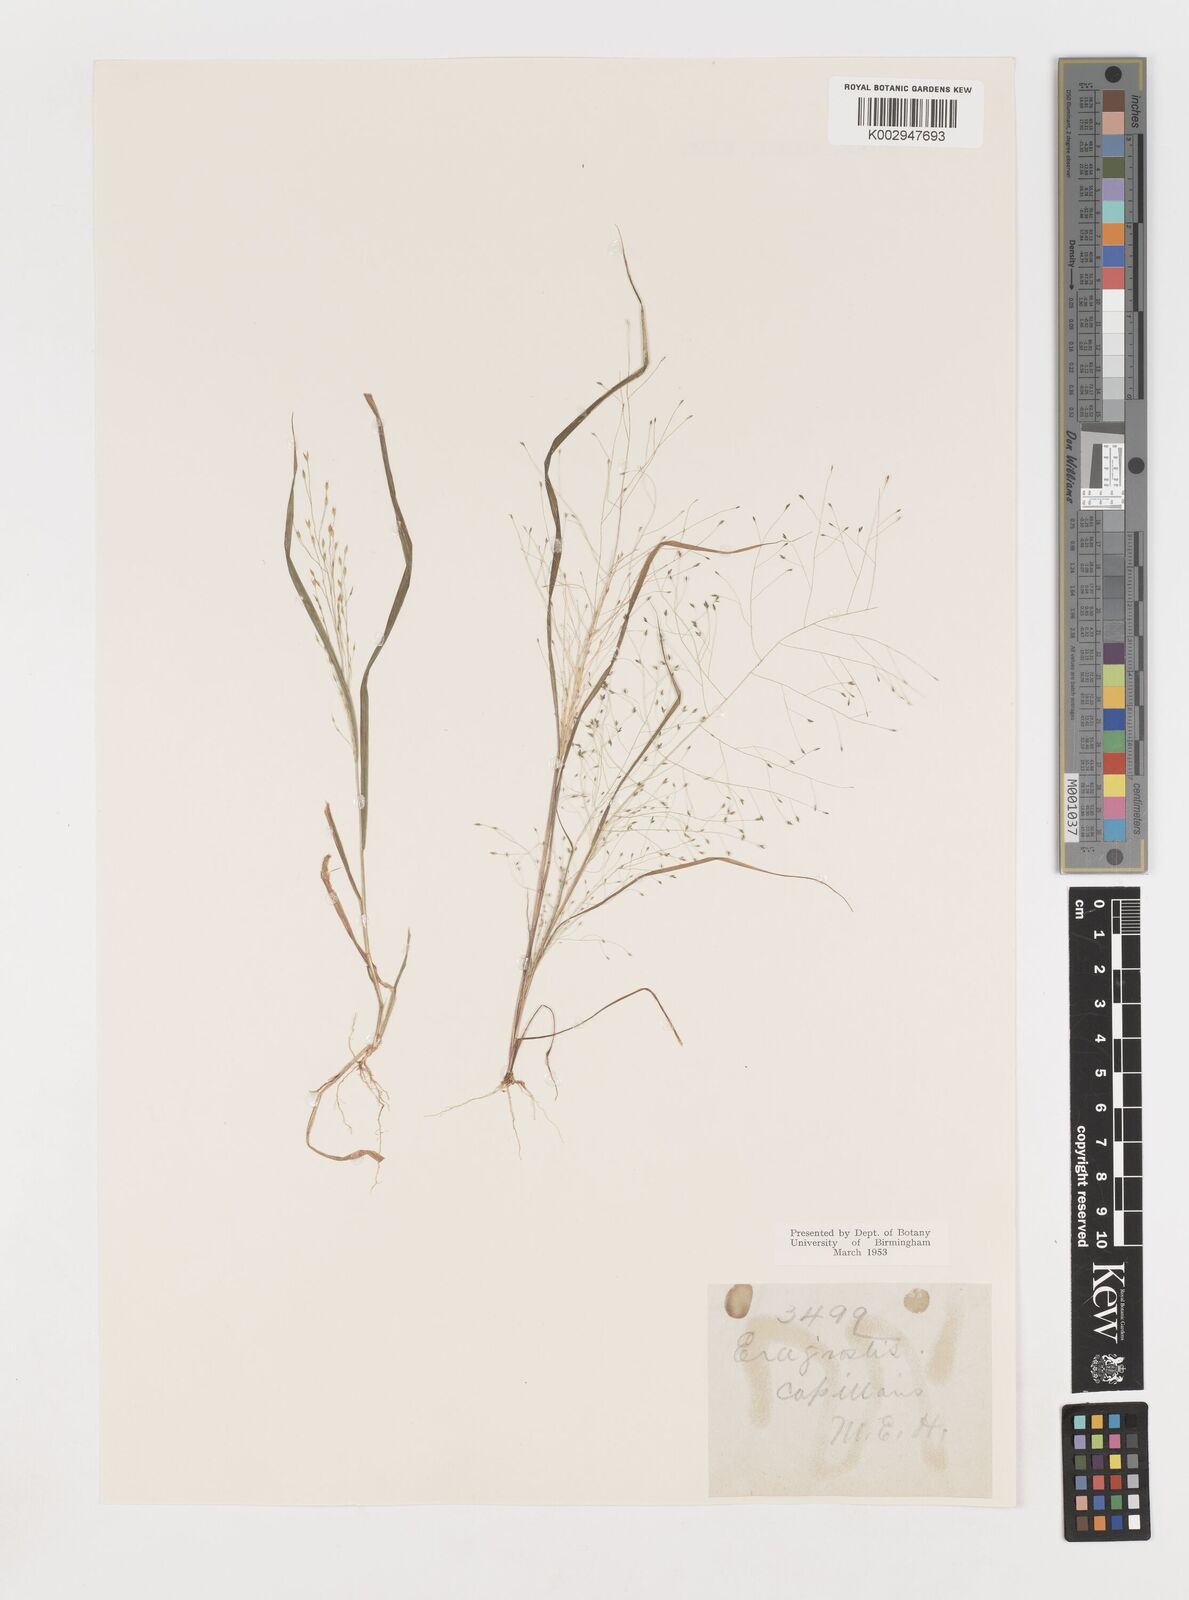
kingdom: Plantae
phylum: Tracheophyta
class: Liliopsida
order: Poales
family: Poaceae
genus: Eragrostis
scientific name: Eragrostis capillaris
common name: Hair-like lovegrass
